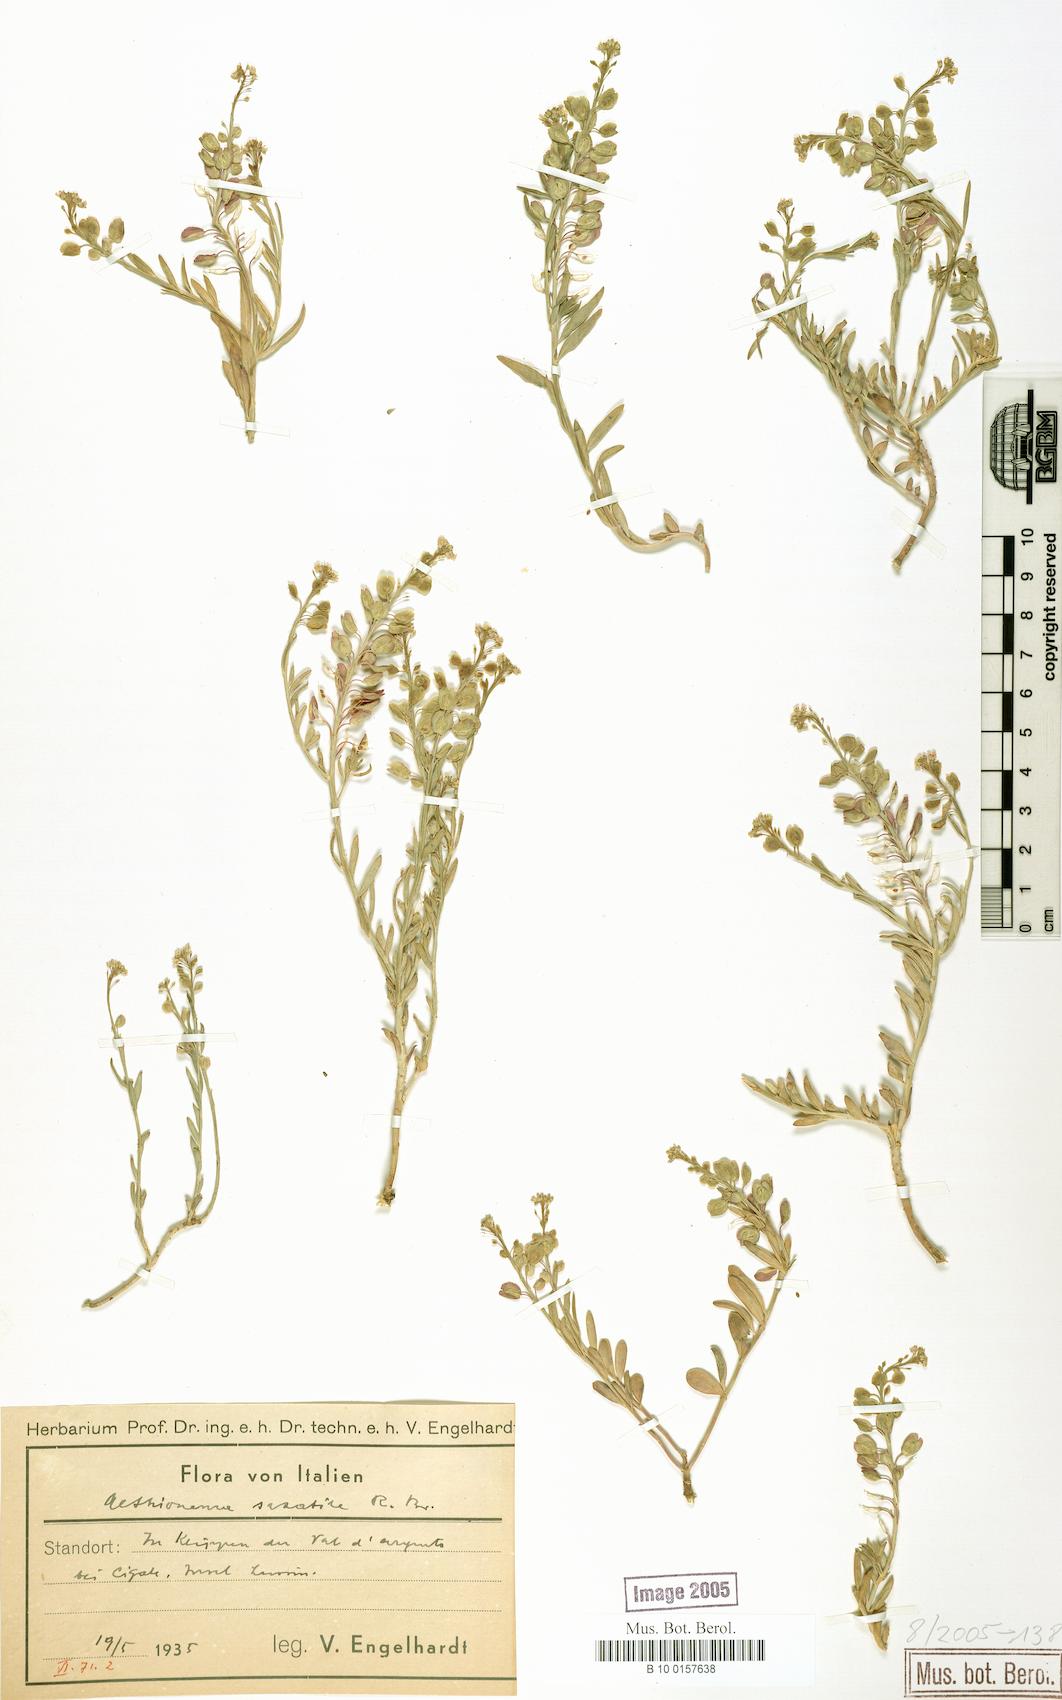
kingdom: Plantae
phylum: Tracheophyta
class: Magnoliopsida
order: Brassicales
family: Brassicaceae
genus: Aethionema
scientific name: Aethionema saxatile
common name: Burnt candytuft
